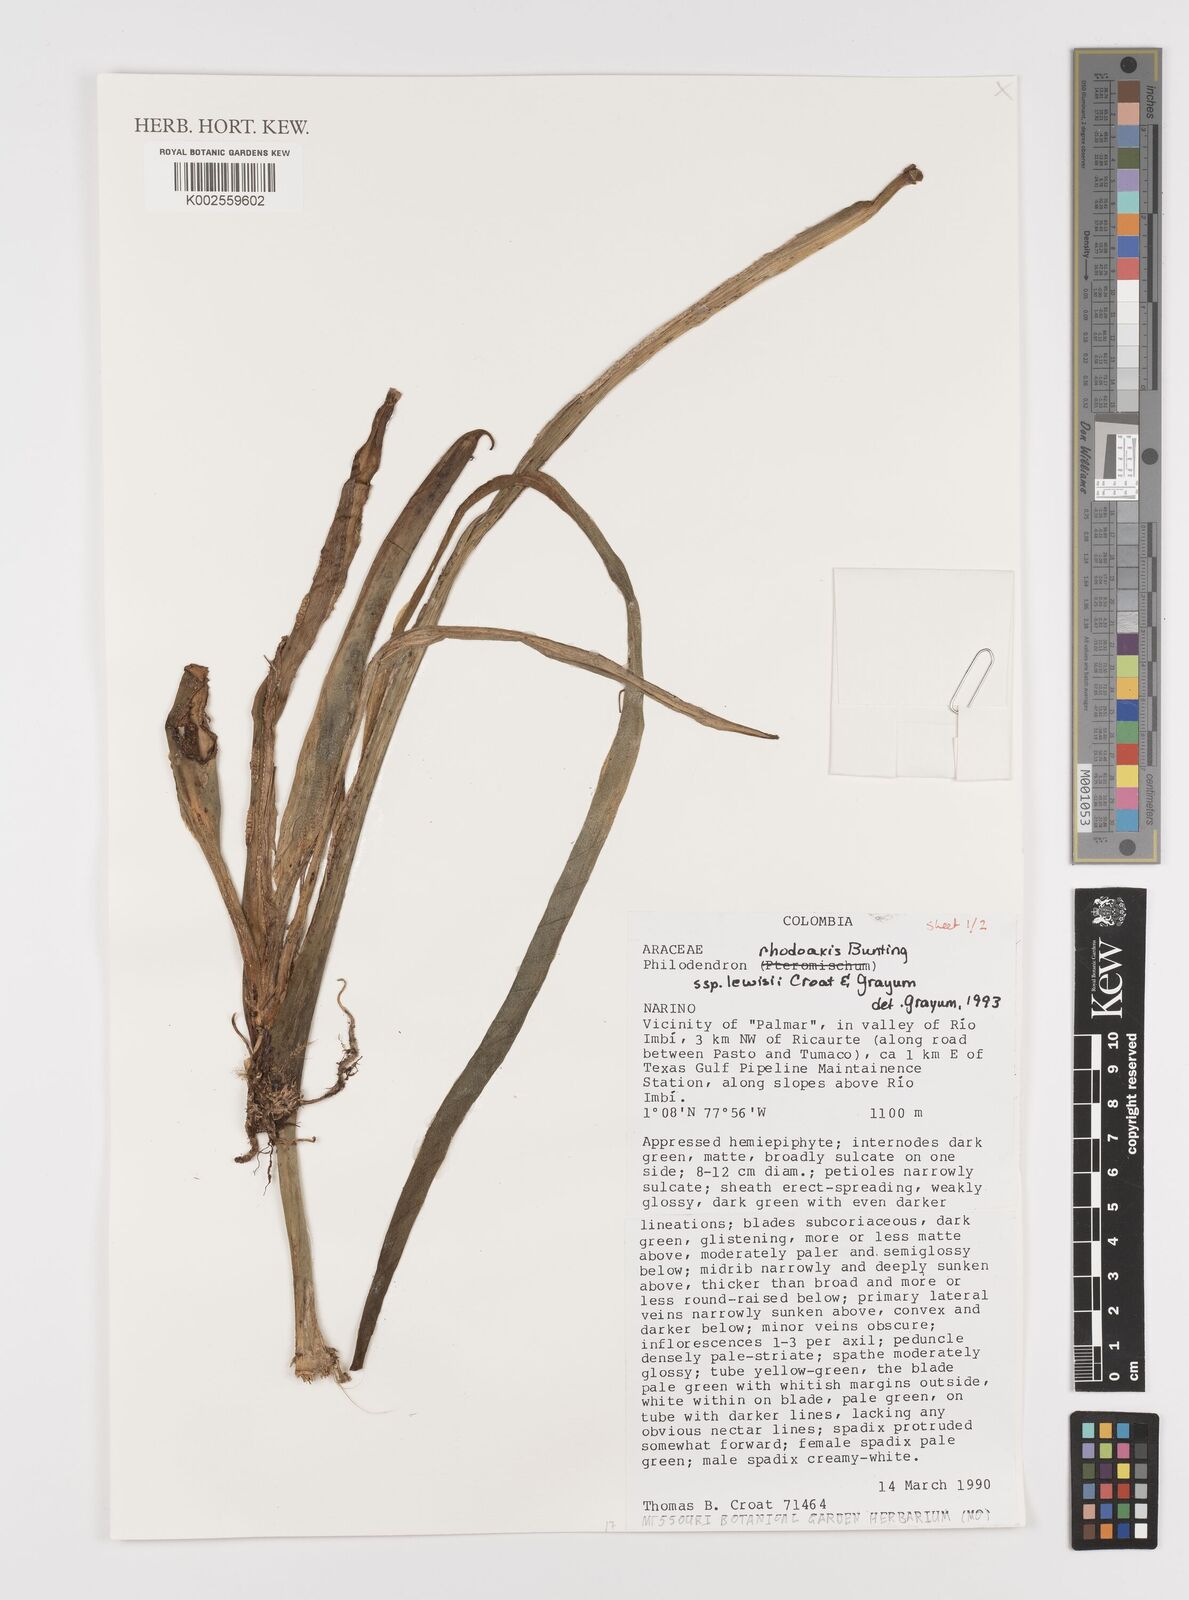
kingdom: Plantae
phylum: Tracheophyta
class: Liliopsida
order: Alismatales
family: Araceae
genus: Philodendron
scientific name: Philodendron rhodoaxis
